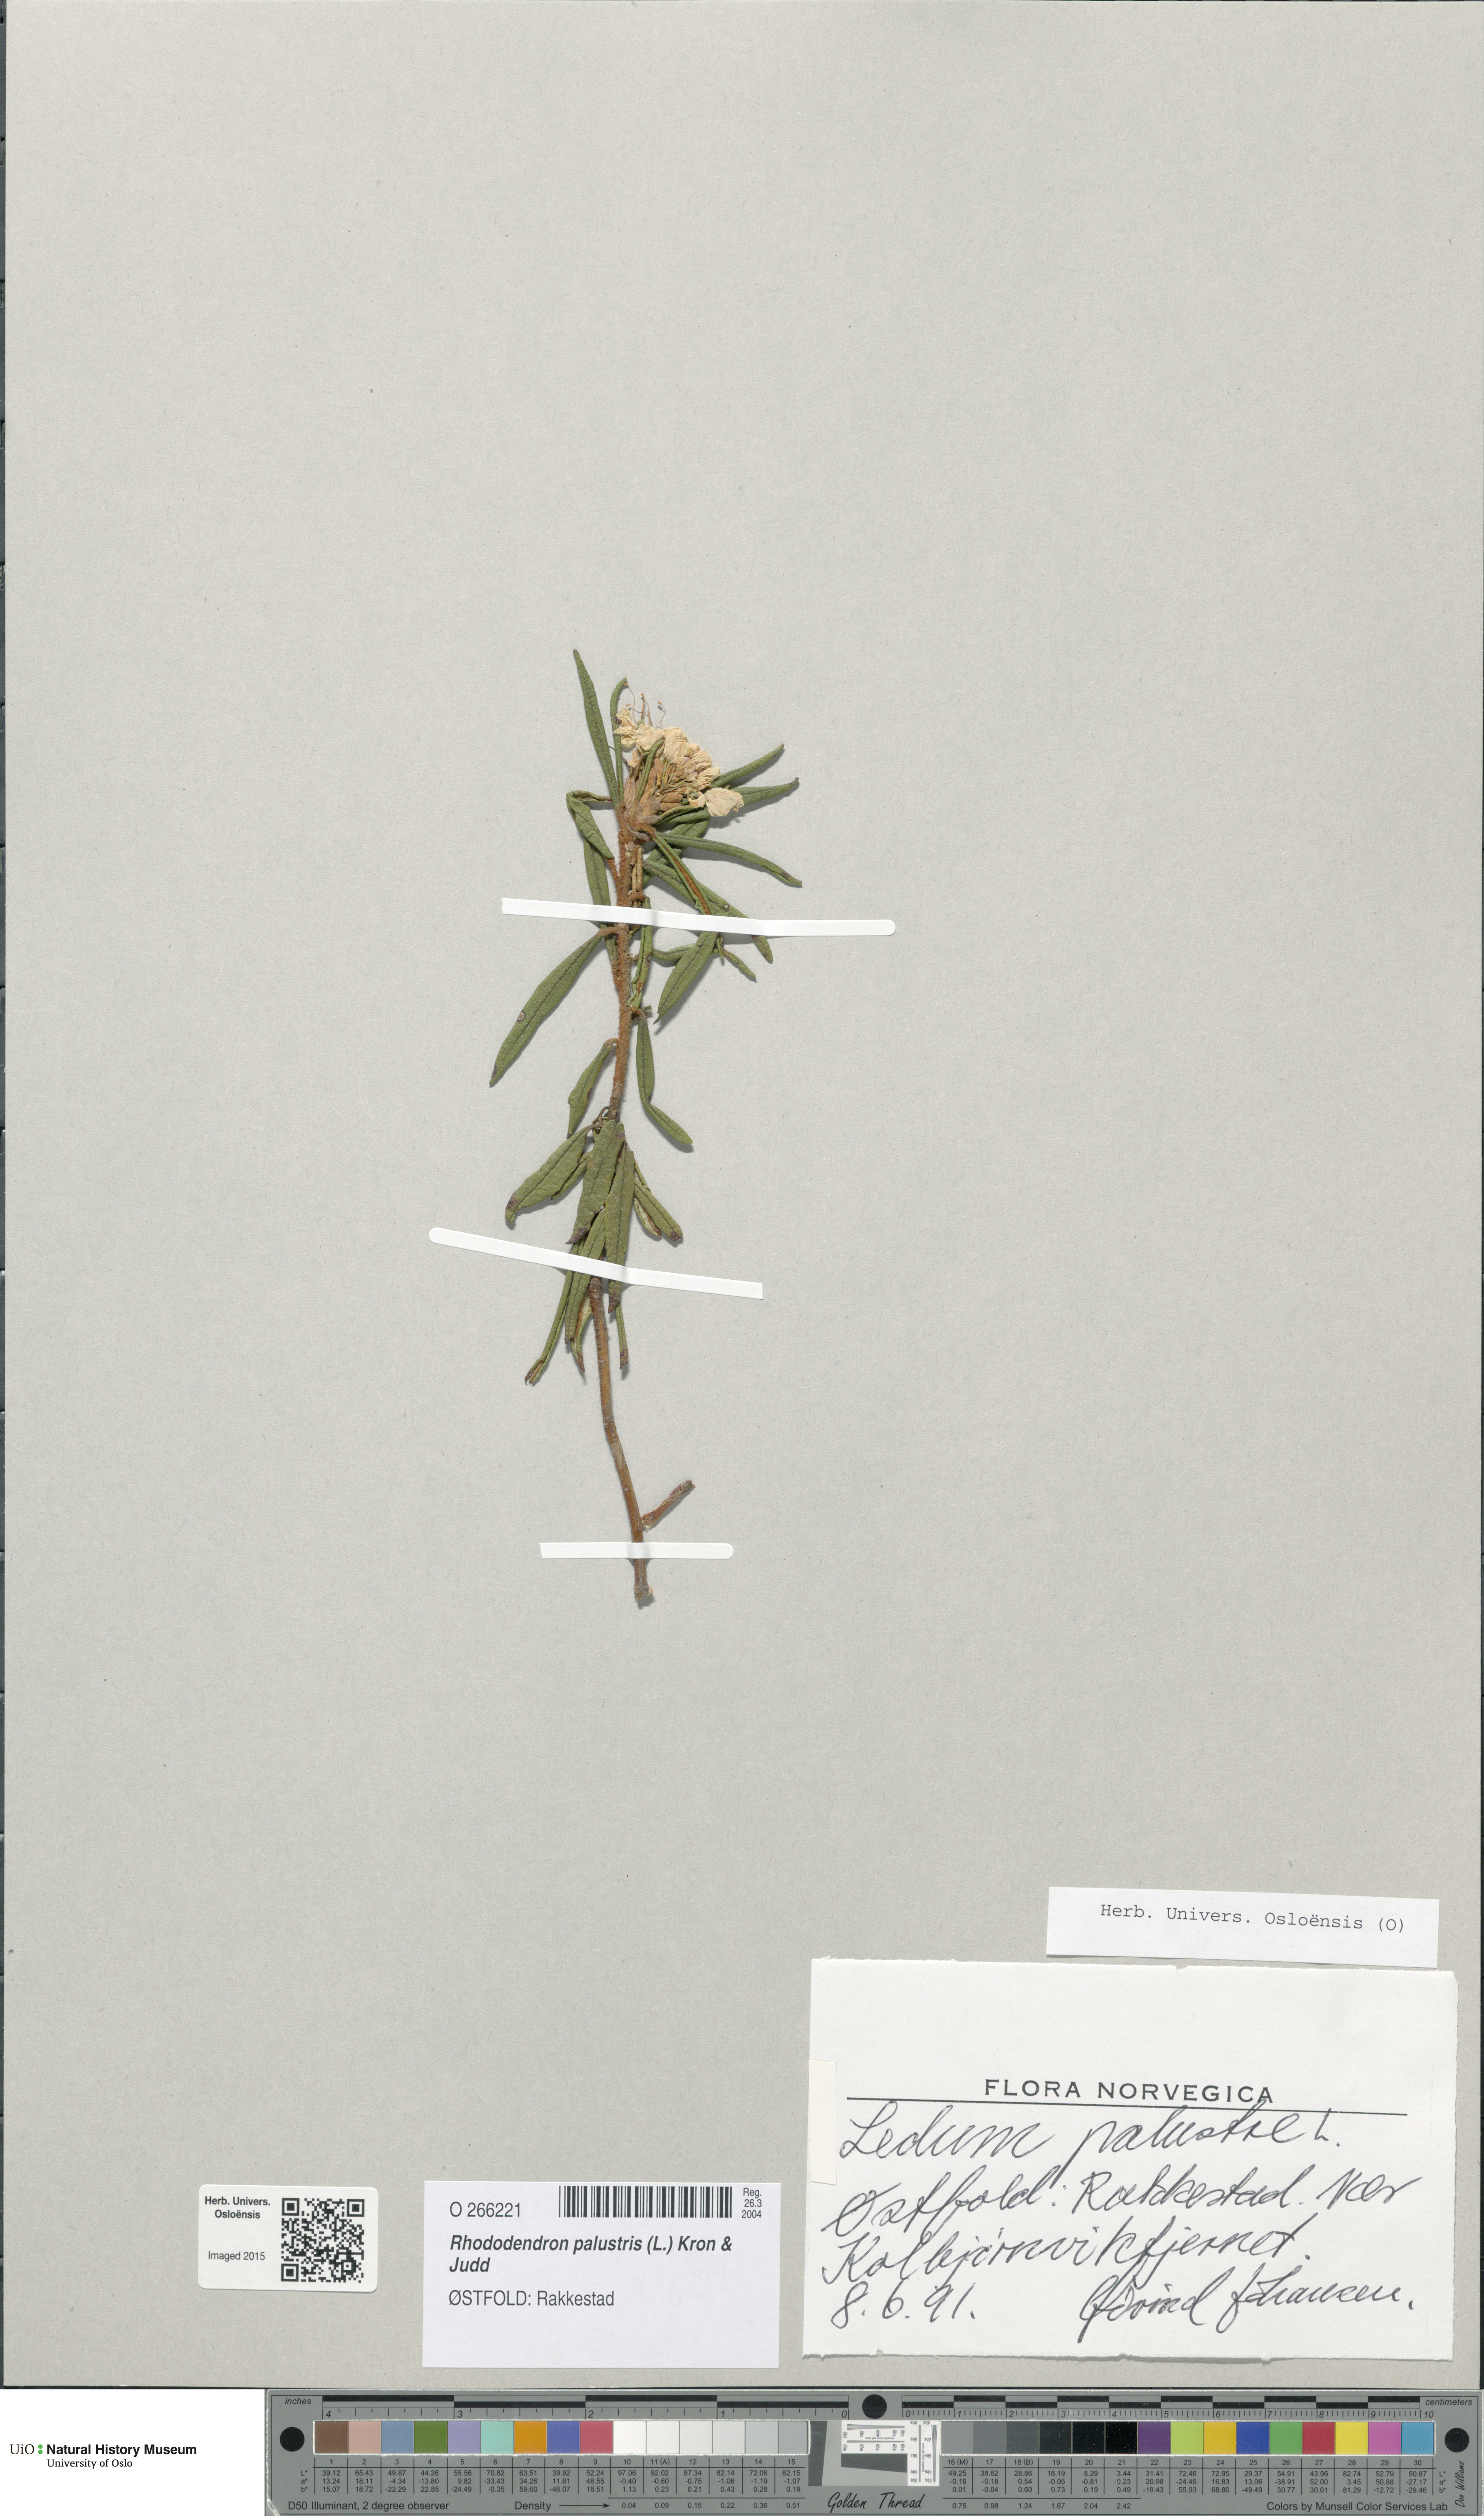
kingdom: Plantae
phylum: Tracheophyta
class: Magnoliopsida
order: Ericales
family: Ericaceae
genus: Rhododendron
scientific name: Rhododendron tomentosum
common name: Marsh labrador tea
